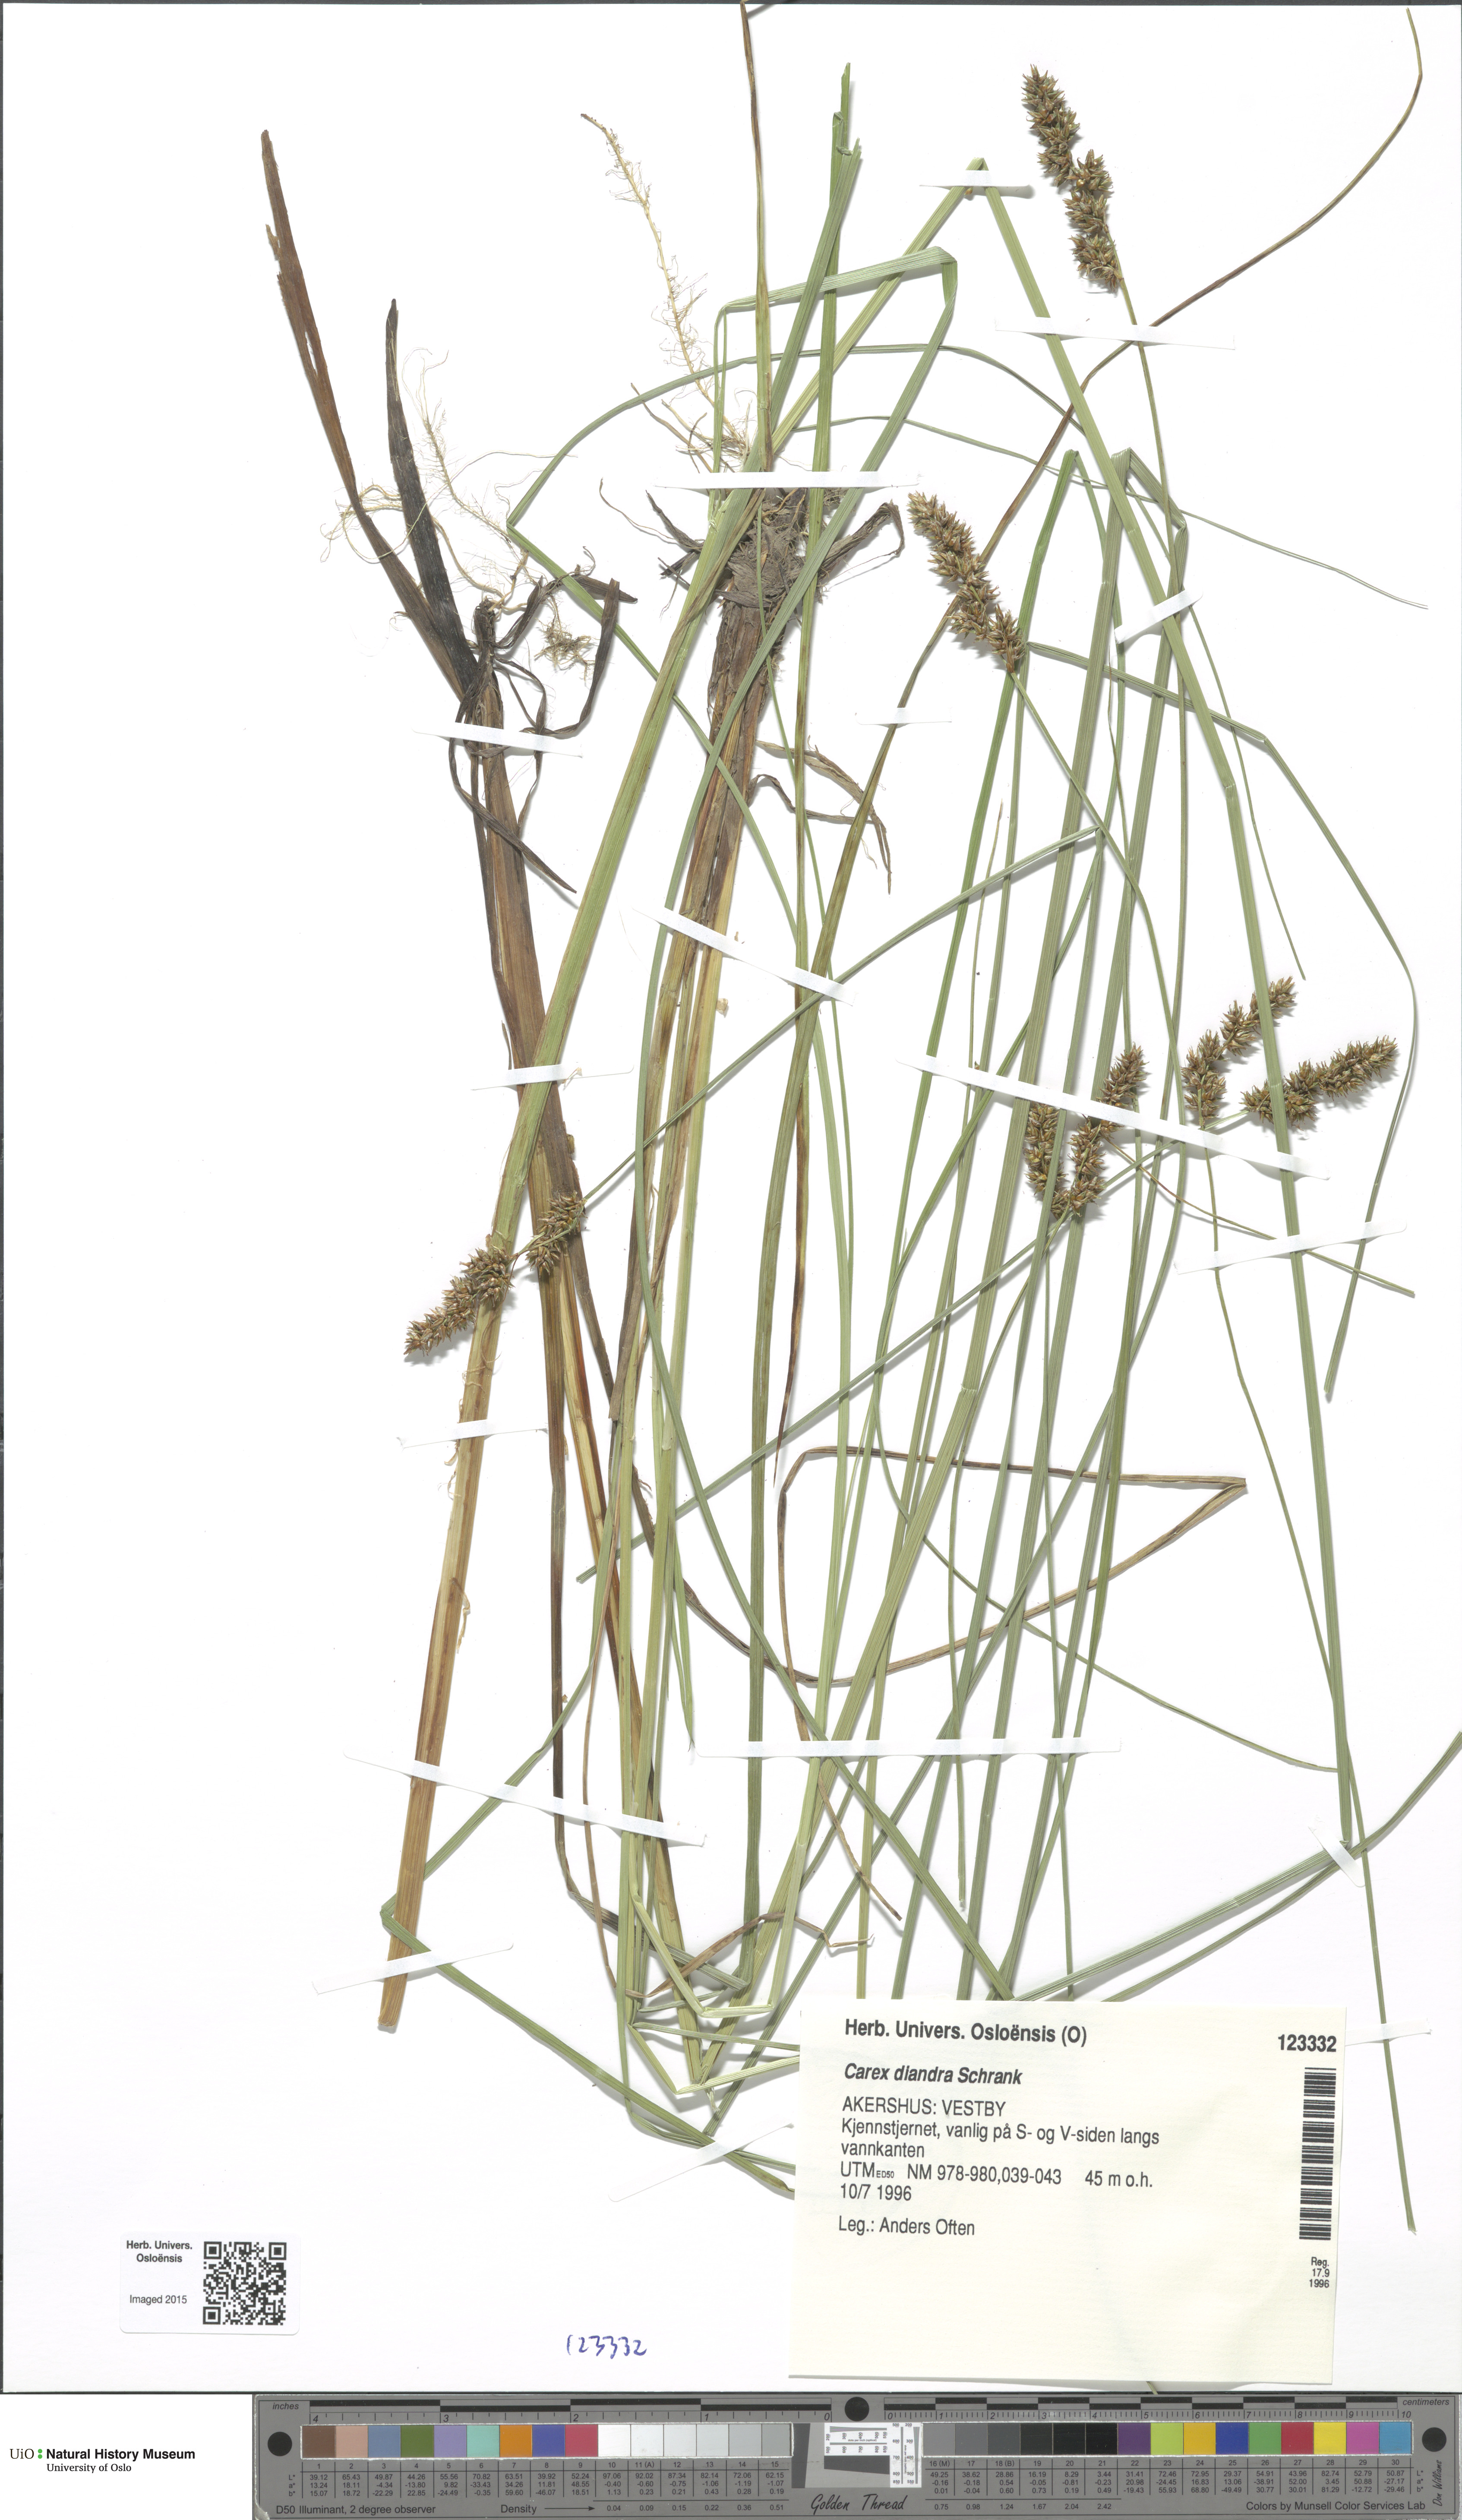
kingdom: Plantae
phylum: Tracheophyta
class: Liliopsida
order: Poales
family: Cyperaceae
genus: Carex
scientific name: Carex diandra
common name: Lesser tussock-sedge
